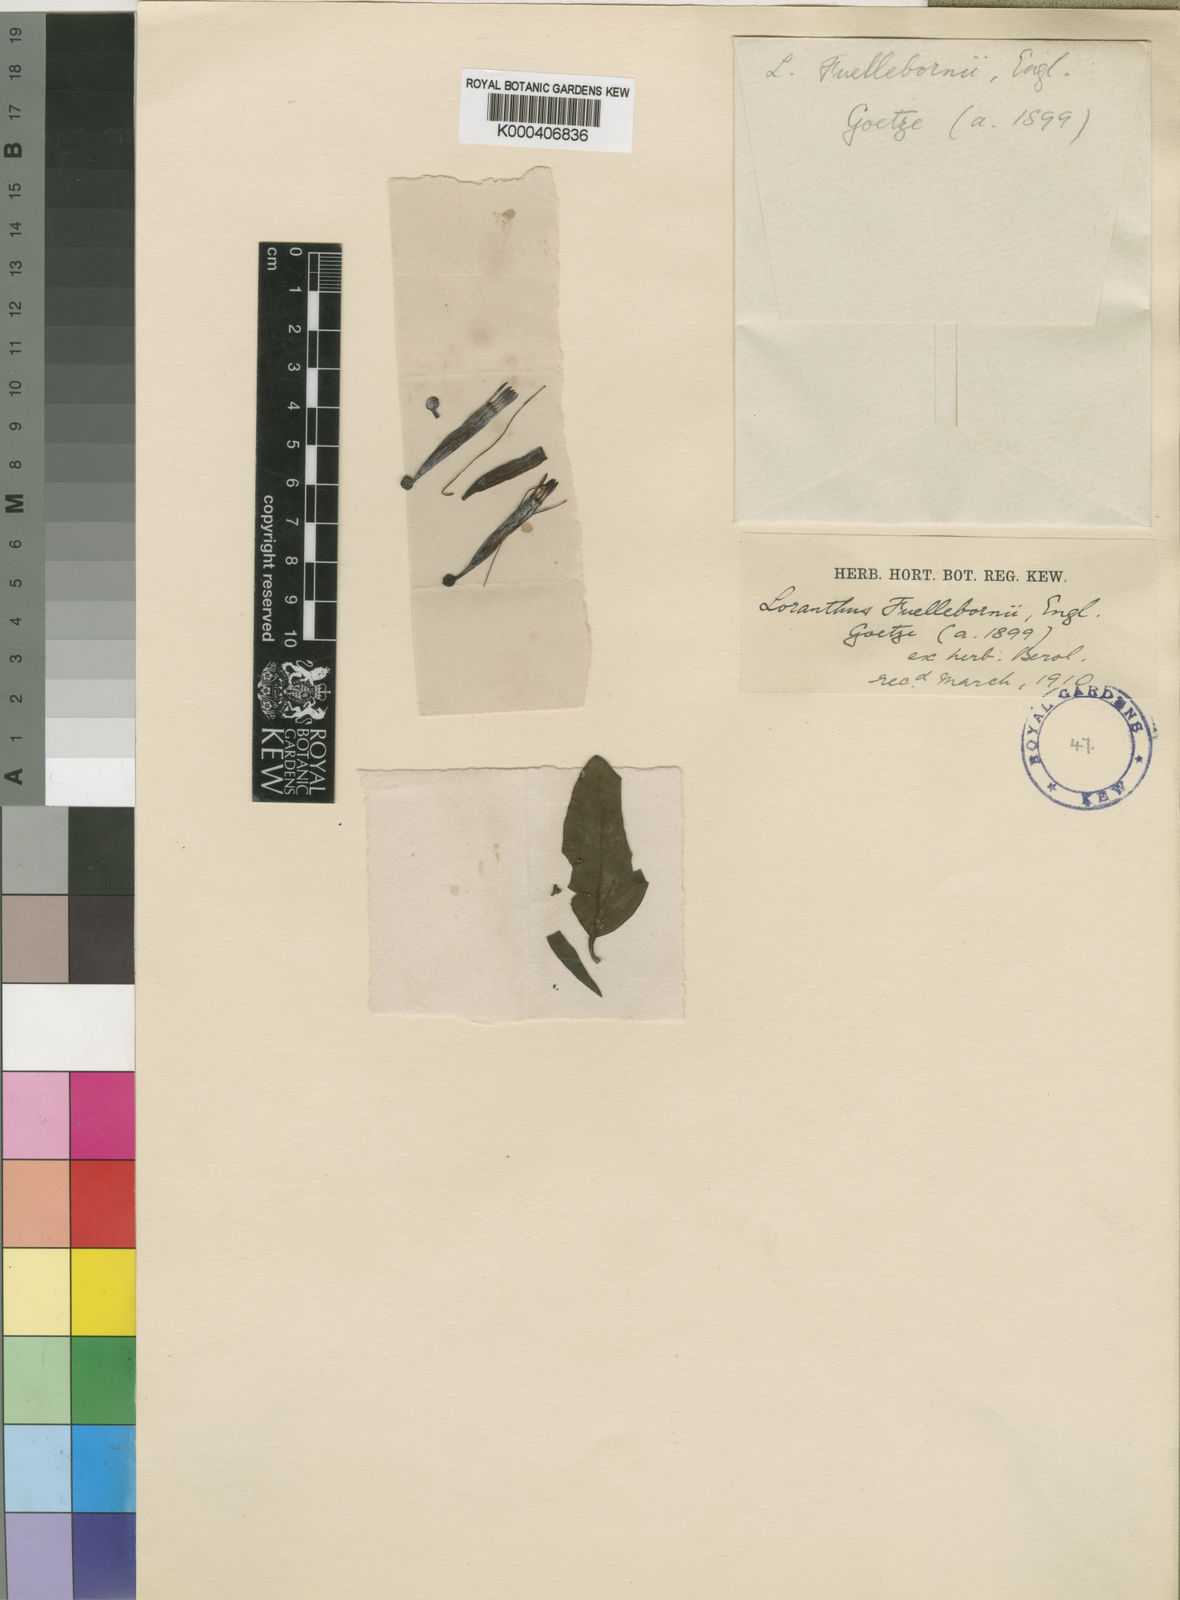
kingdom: Plantae
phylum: Tracheophyta
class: Magnoliopsida
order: Santalales
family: Loranthaceae
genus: Agelanthus
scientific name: Agelanthus fuellebornii
